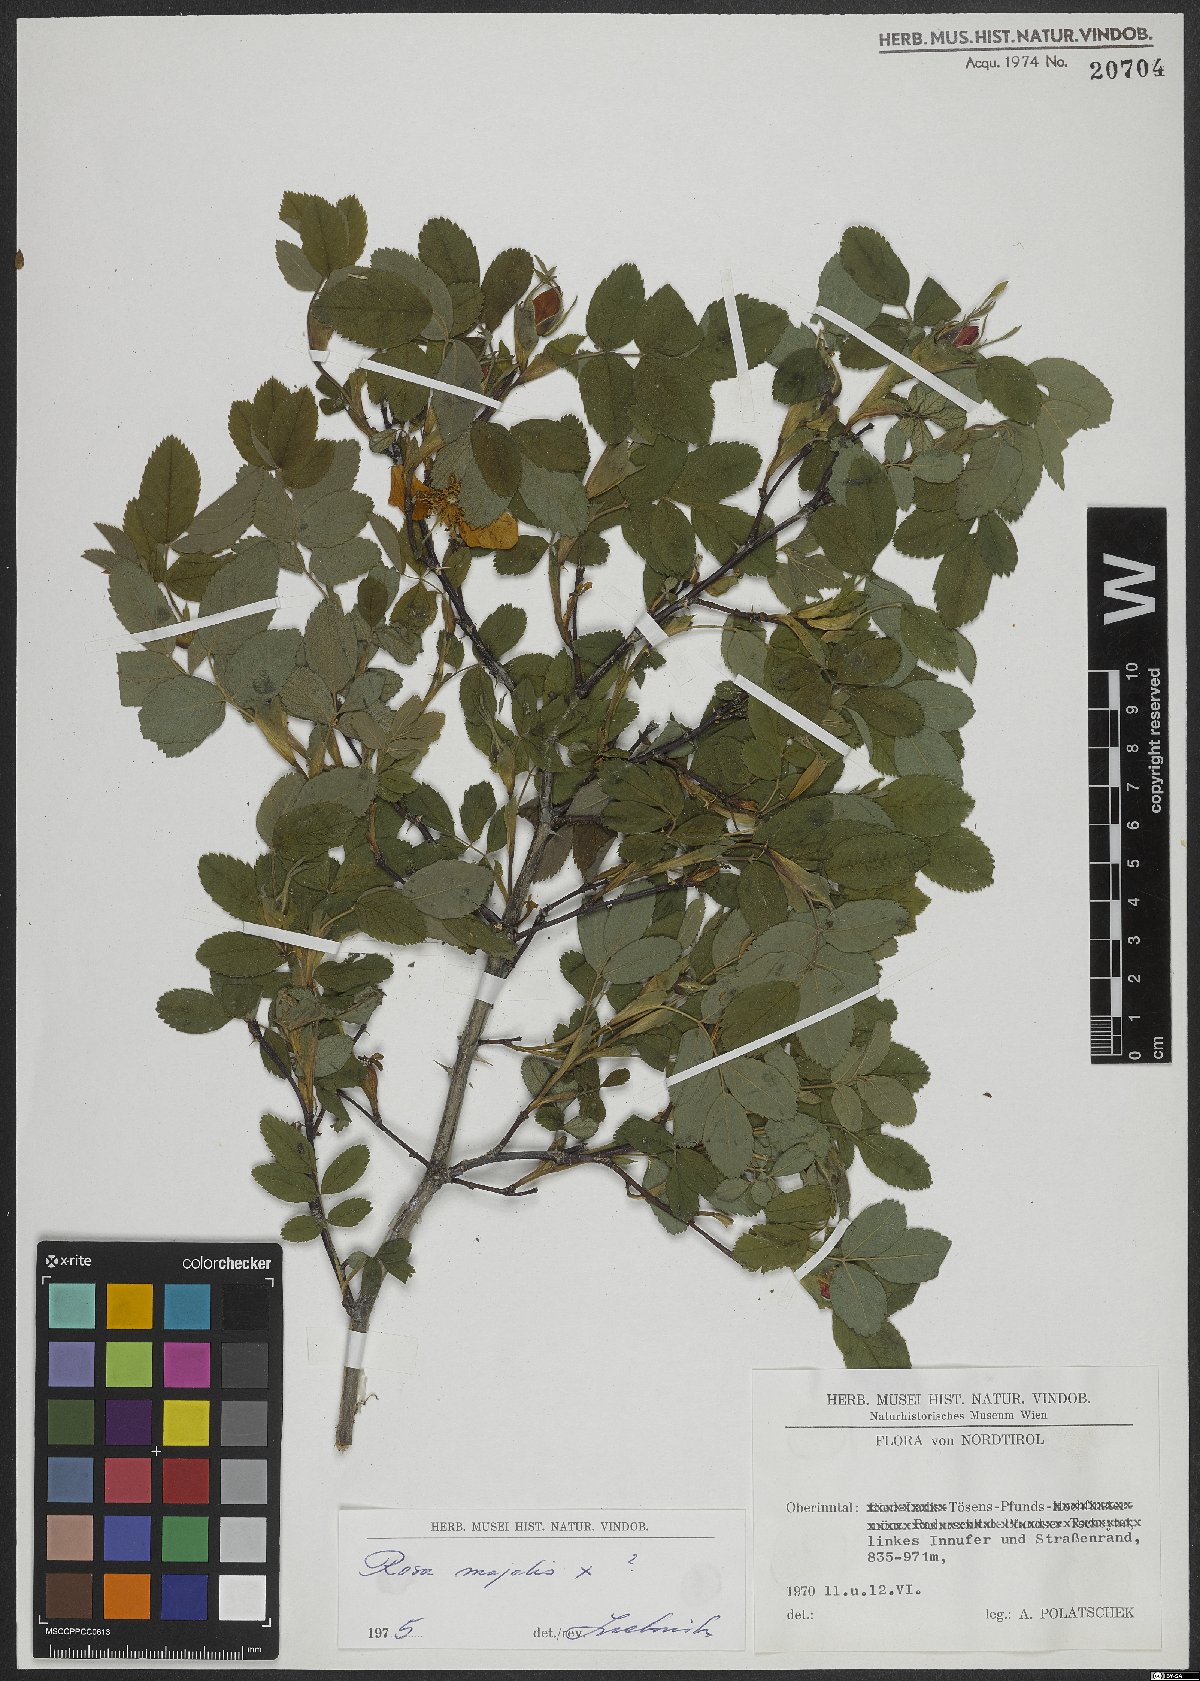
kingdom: Plantae
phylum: Tracheophyta
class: Magnoliopsida
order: Rosales
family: Rosaceae
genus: Rosa
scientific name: Rosa
